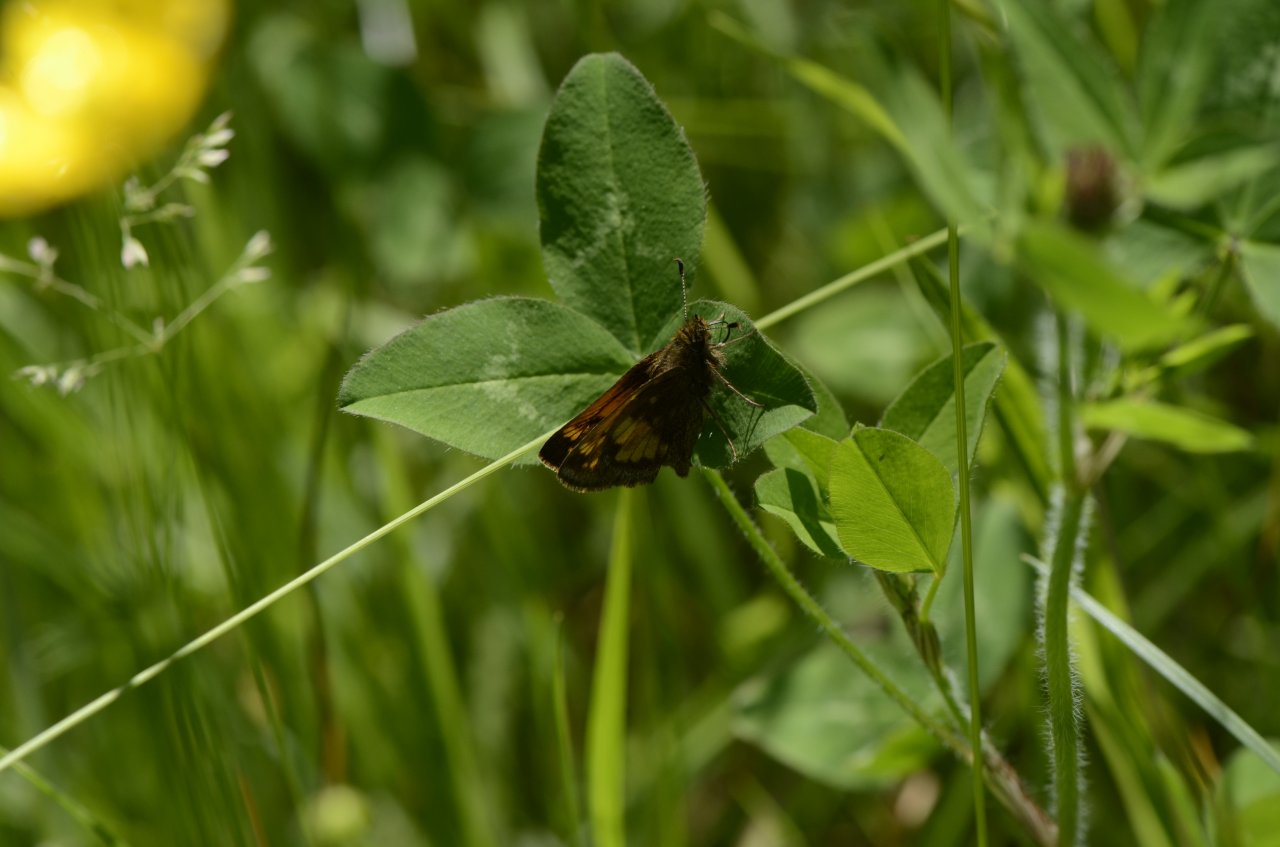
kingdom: Animalia
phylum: Arthropoda
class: Insecta
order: Lepidoptera
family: Hesperiidae
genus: Lon
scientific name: Lon hobomok
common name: Hobomok Skipper
